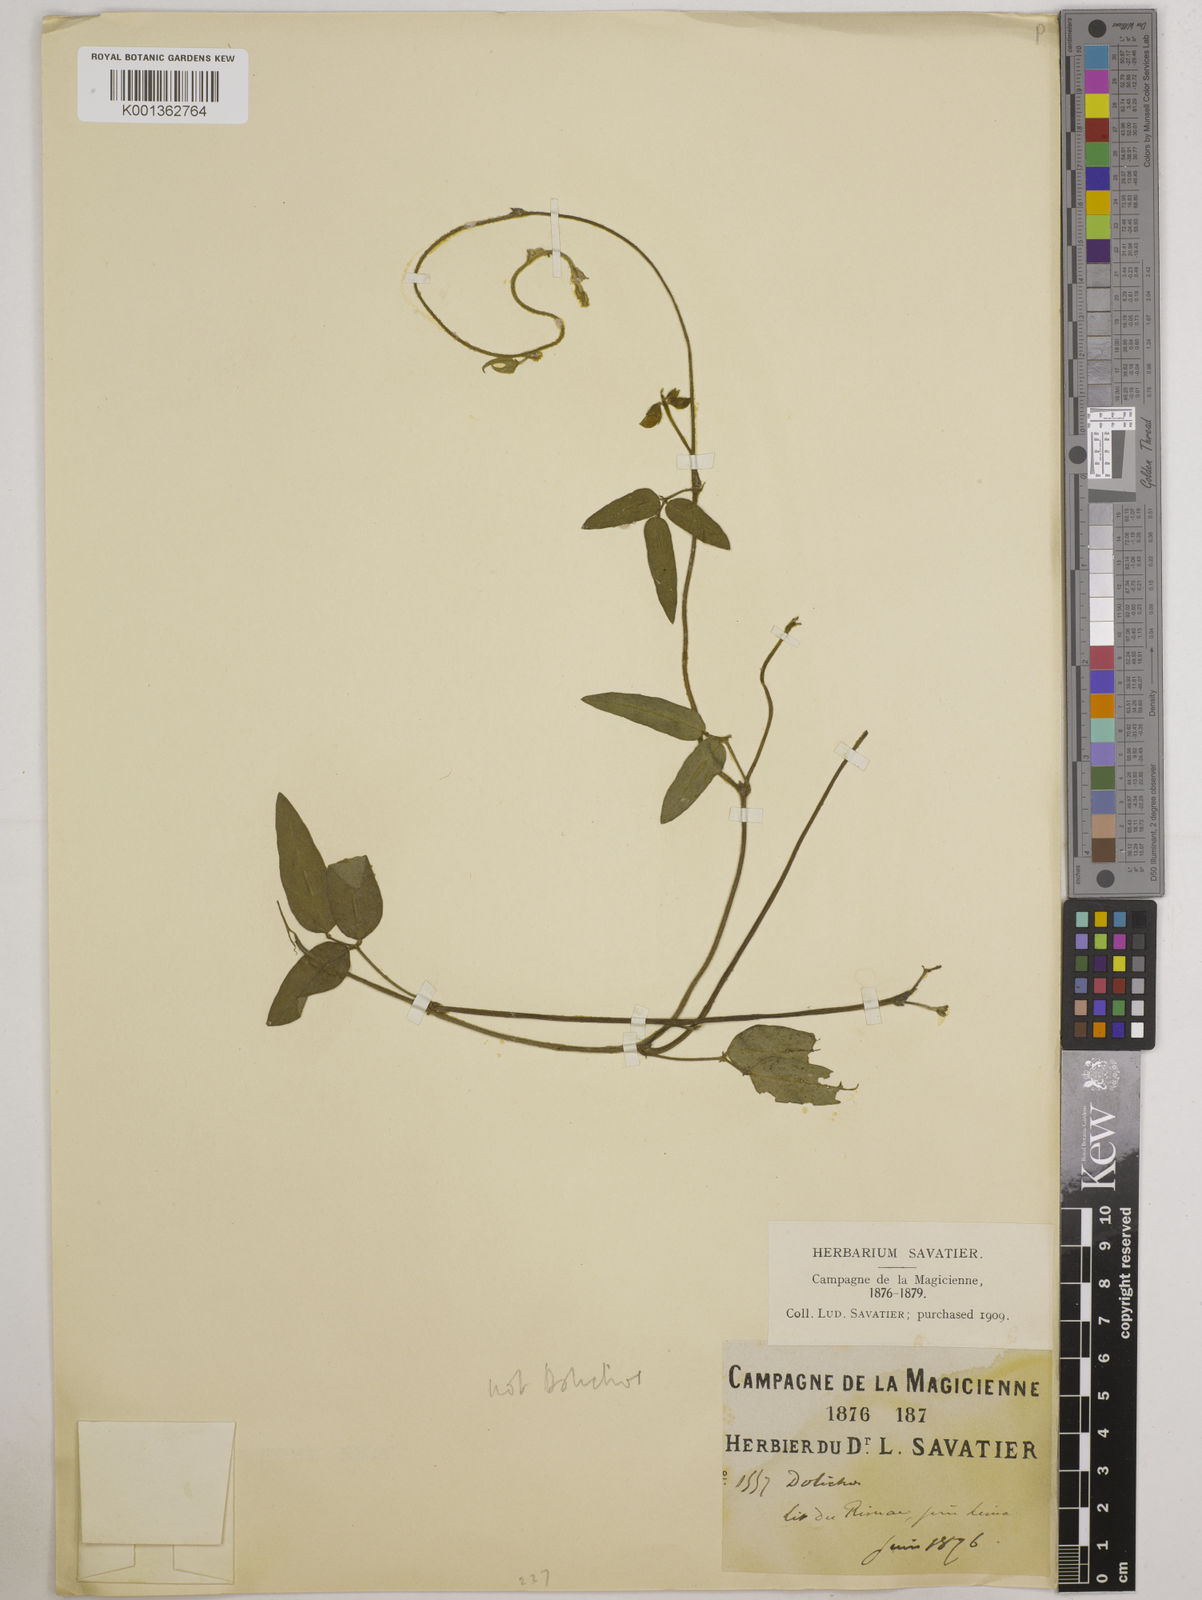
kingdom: Plantae
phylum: Tracheophyta
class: Magnoliopsida
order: Fabales
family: Fabaceae
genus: Vigna
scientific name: Vigna luteola
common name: Hairypod cowpea
